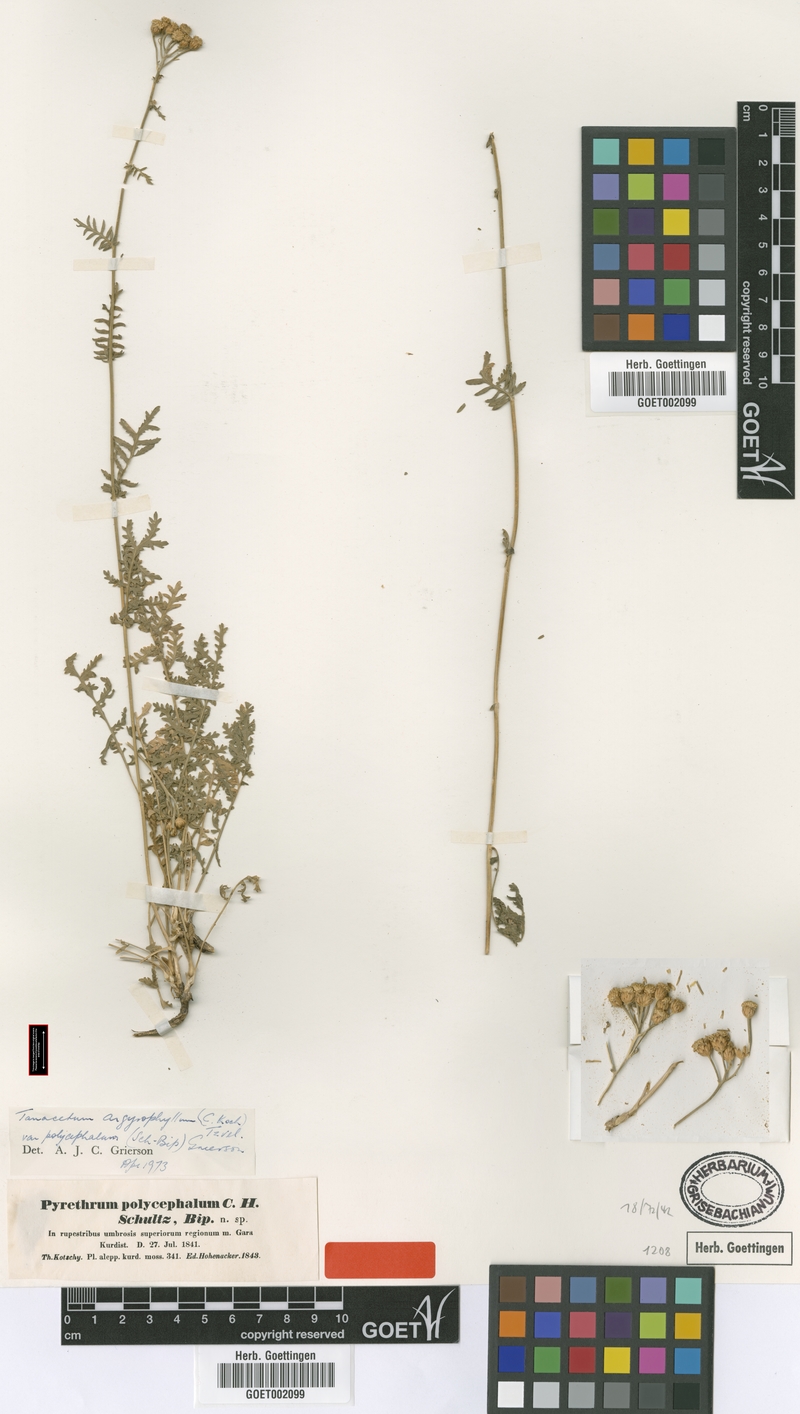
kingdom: Plantae
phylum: Tracheophyta
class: Magnoliopsida
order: Asterales
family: Asteraceae
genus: Tanacetum
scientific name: Tanacetum polycephalum
